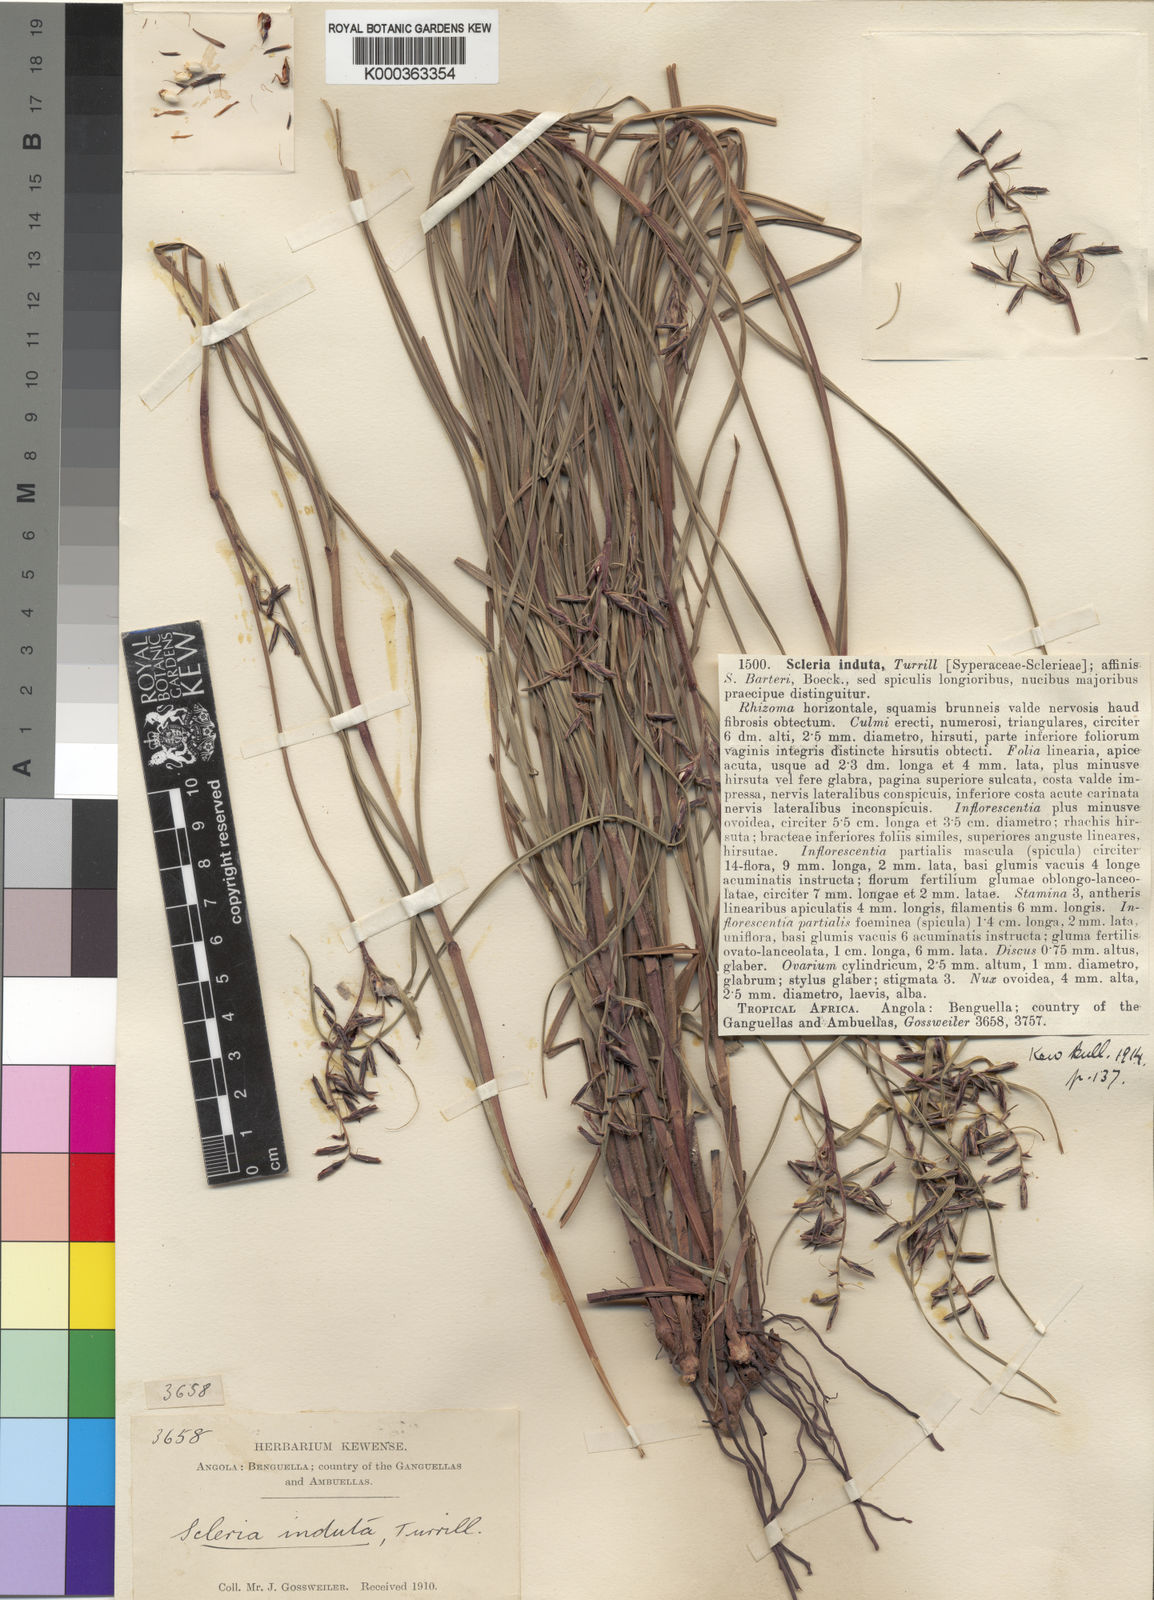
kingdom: Plantae
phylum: Tracheophyta
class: Liliopsida
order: Poales
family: Cyperaceae
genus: Scleria
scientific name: Scleria induta
